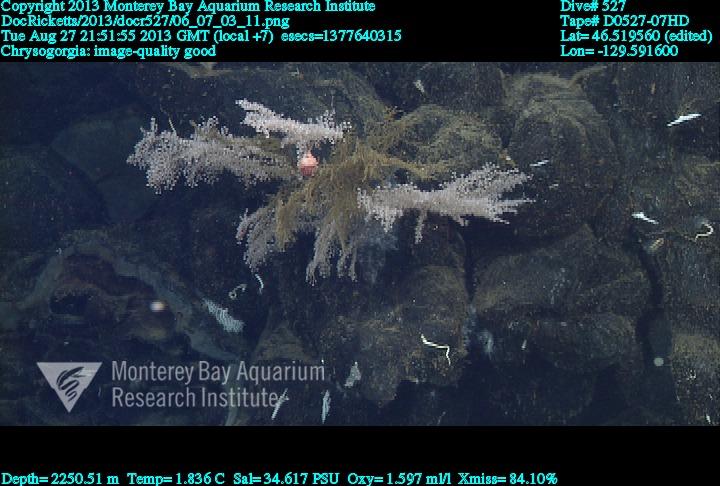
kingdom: Animalia
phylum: Cnidaria
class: Anthozoa
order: Scleralcyonacea
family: Chrysogorgiidae
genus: Chrysogorgia
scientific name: Chrysogorgia
